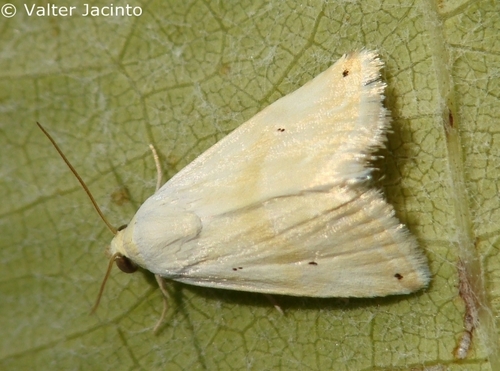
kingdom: Animalia
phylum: Arthropoda
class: Insecta
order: Lepidoptera
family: Noctuidae
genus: Eublemma
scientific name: Eublemma pura
